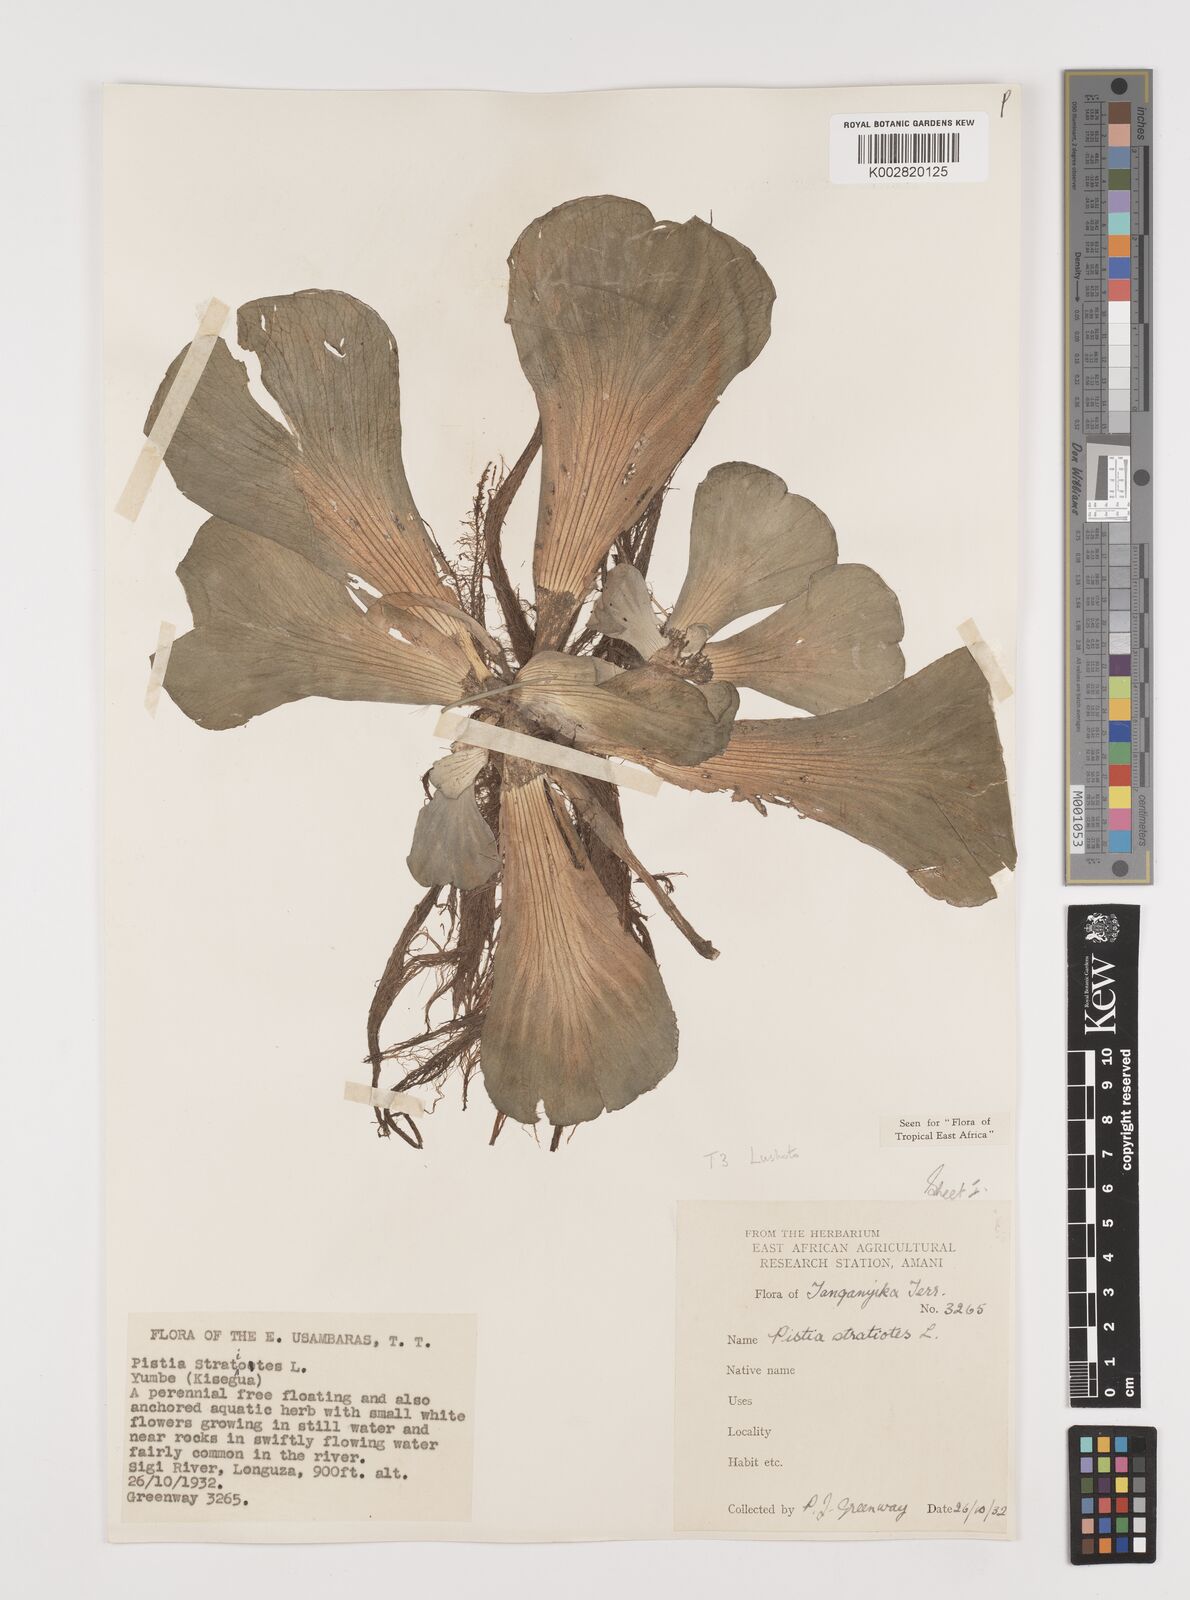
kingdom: Plantae
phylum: Tracheophyta
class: Liliopsida
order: Alismatales
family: Araceae
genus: Pistia
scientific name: Pistia stratiotes
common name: Water lettuce
